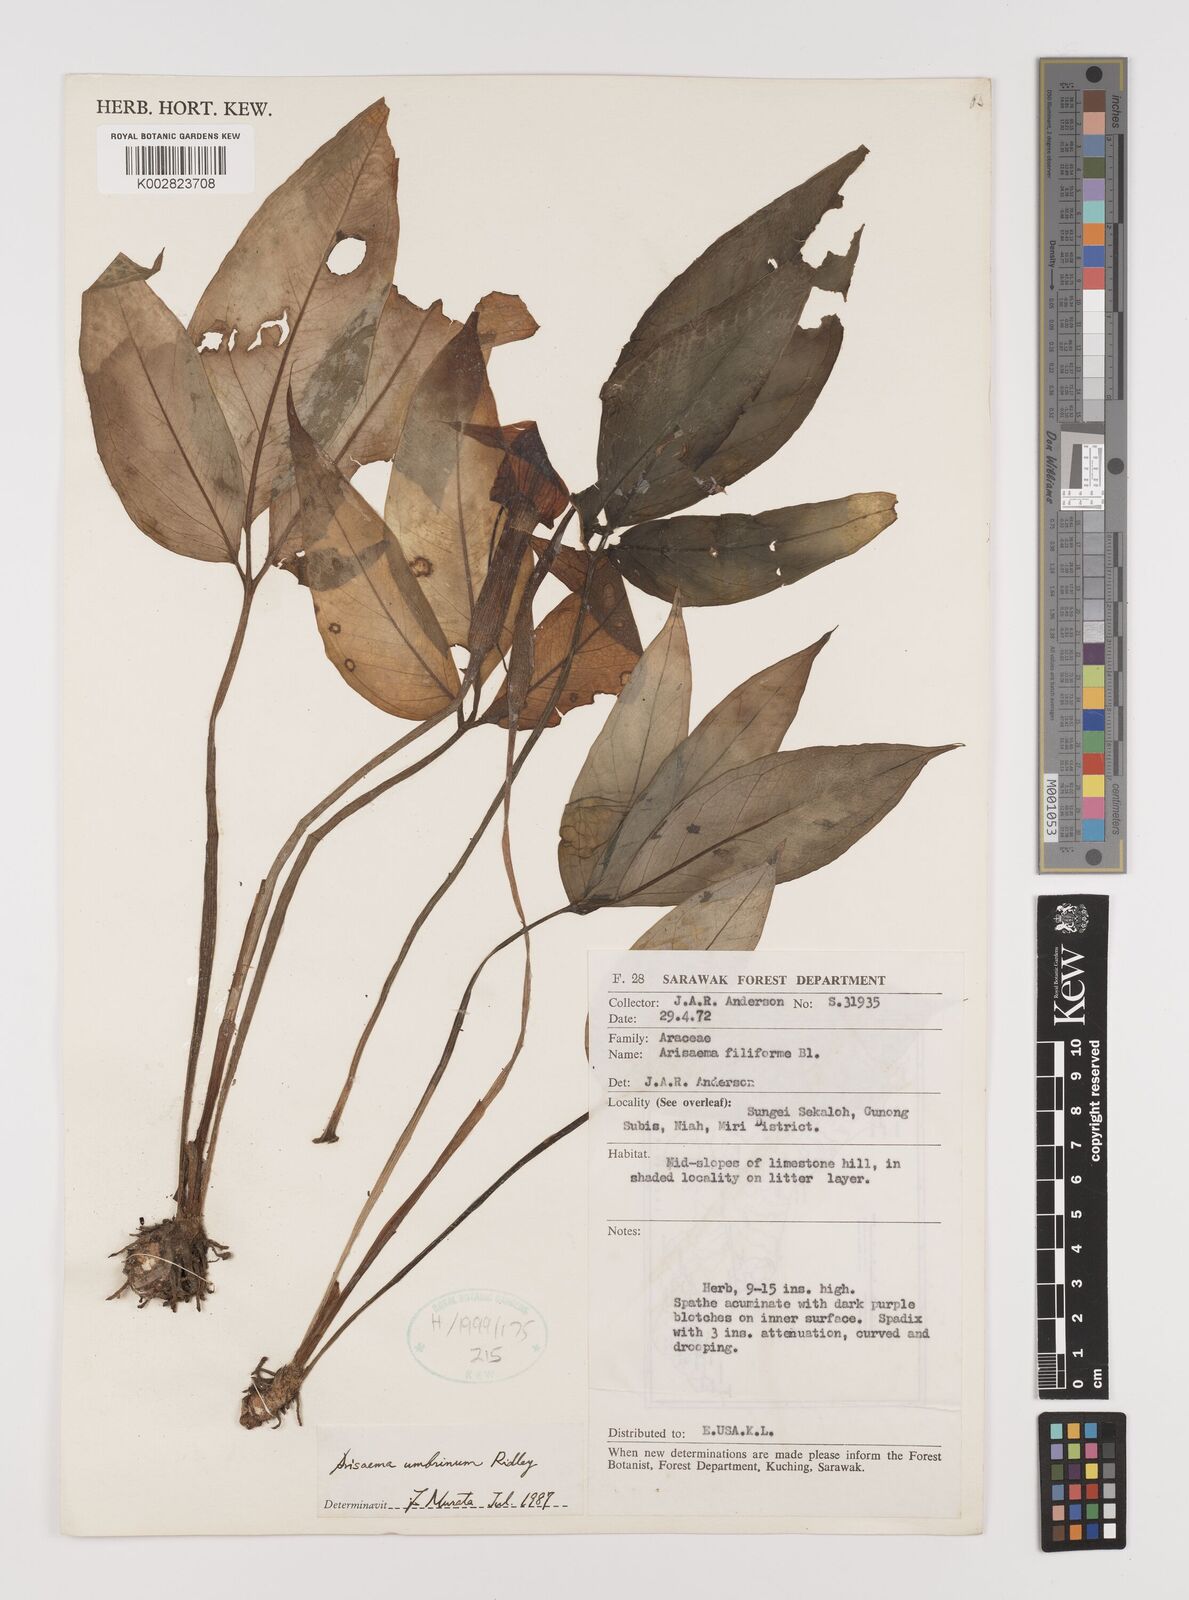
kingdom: Plantae
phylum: Tracheophyta
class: Liliopsida
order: Alismatales
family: Araceae
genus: Arisaema
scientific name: Arisaema filiforme
